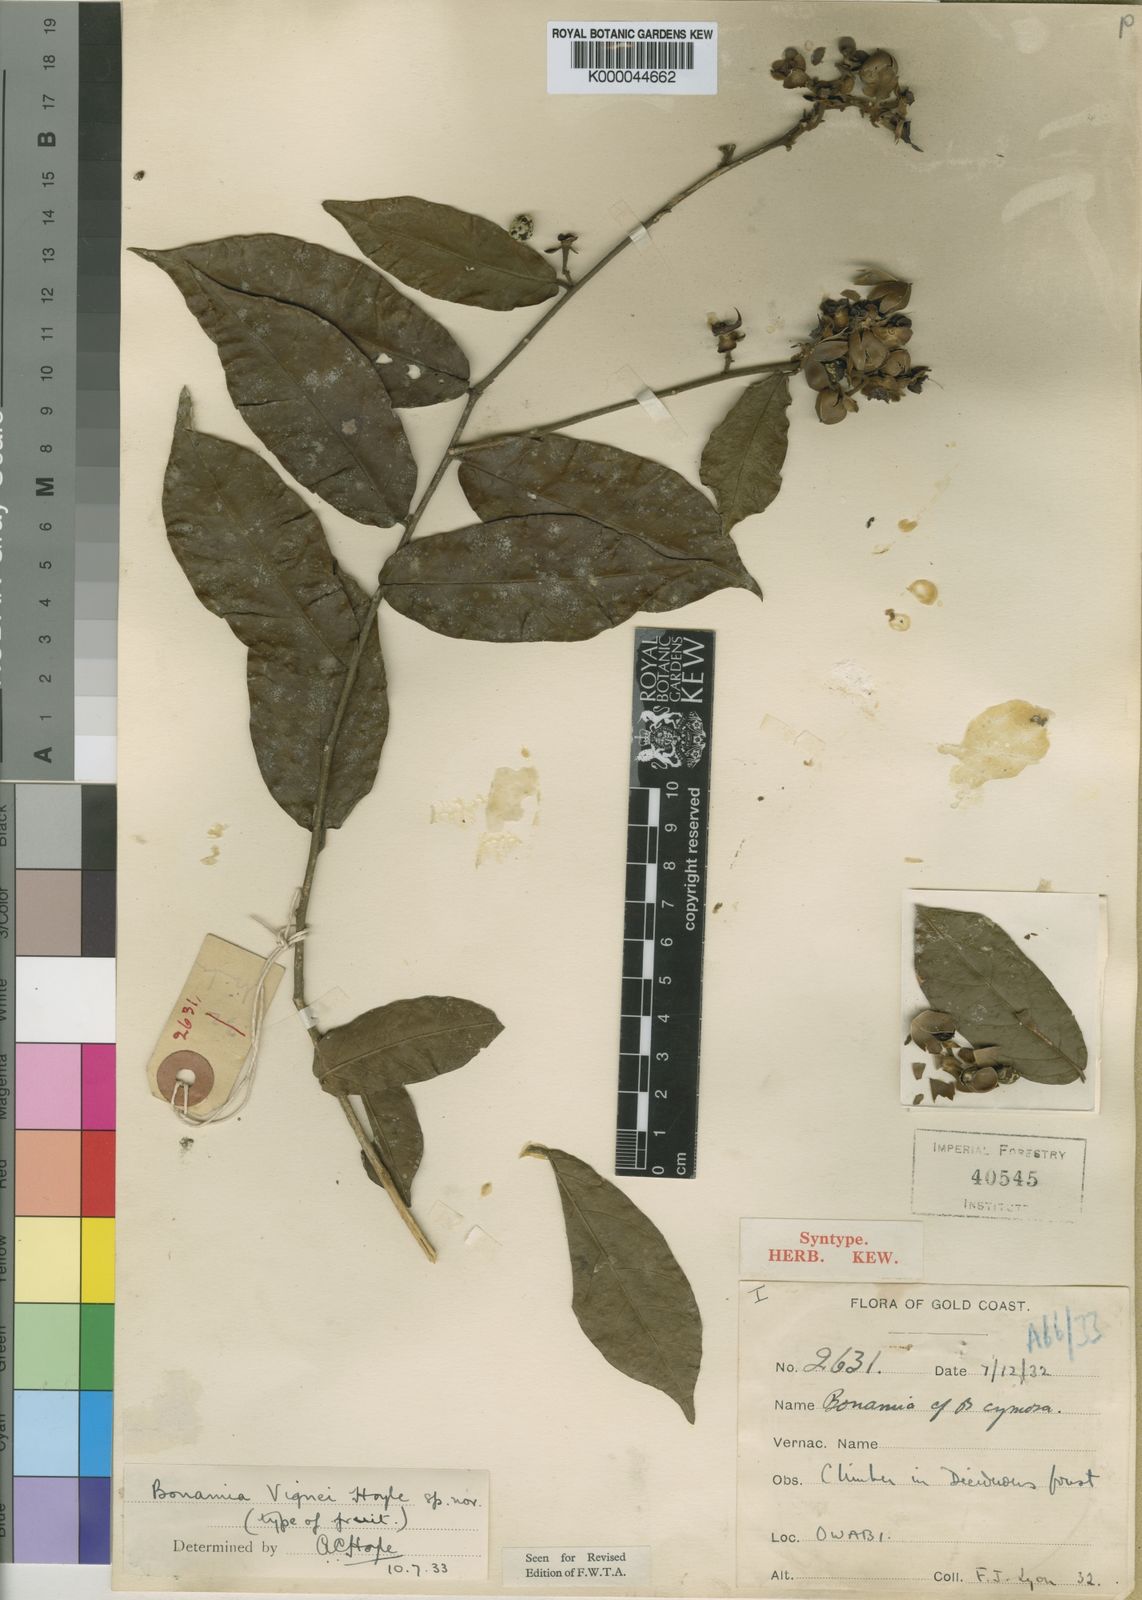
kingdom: Plantae
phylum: Tracheophyta
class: Magnoliopsida
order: Solanales
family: Convolvulaceae
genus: Bonamia
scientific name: Bonamia longitubulosa
